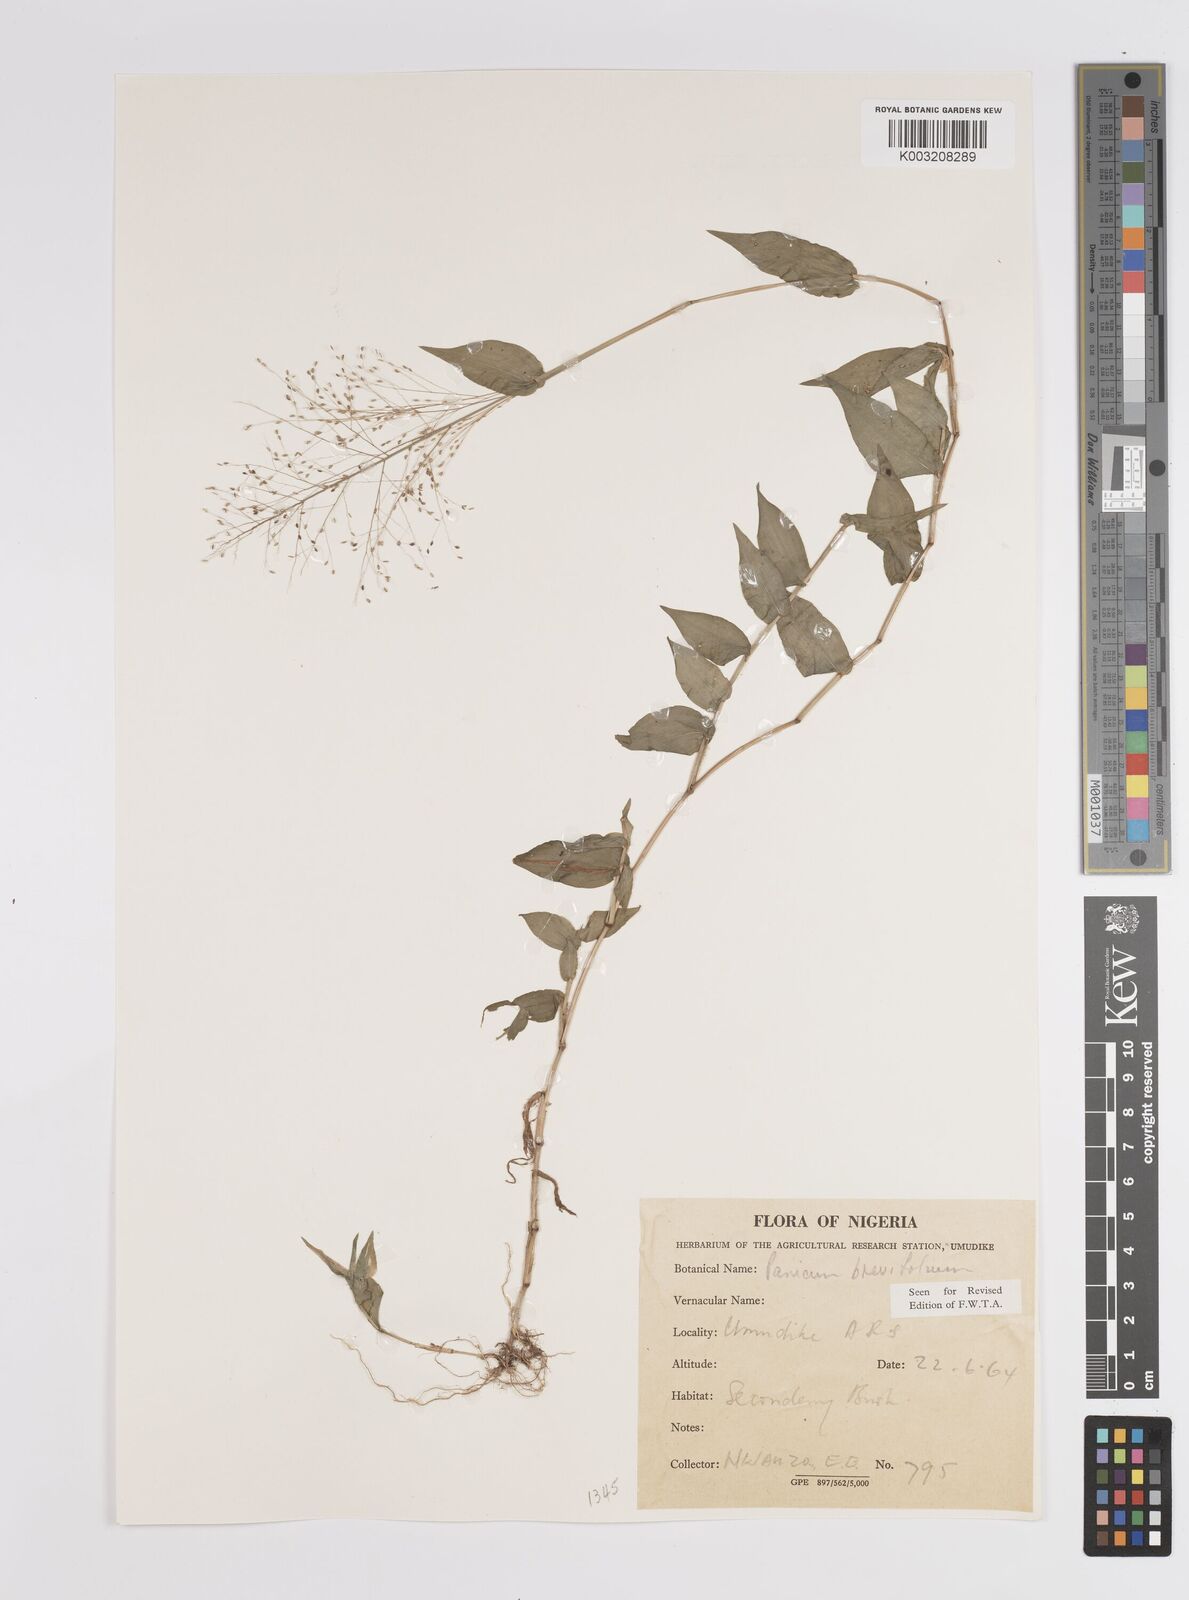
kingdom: Plantae
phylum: Tracheophyta
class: Liliopsida
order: Poales
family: Poaceae
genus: Panicum
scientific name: Panicum brevifolium
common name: Shortleaf panic grass
